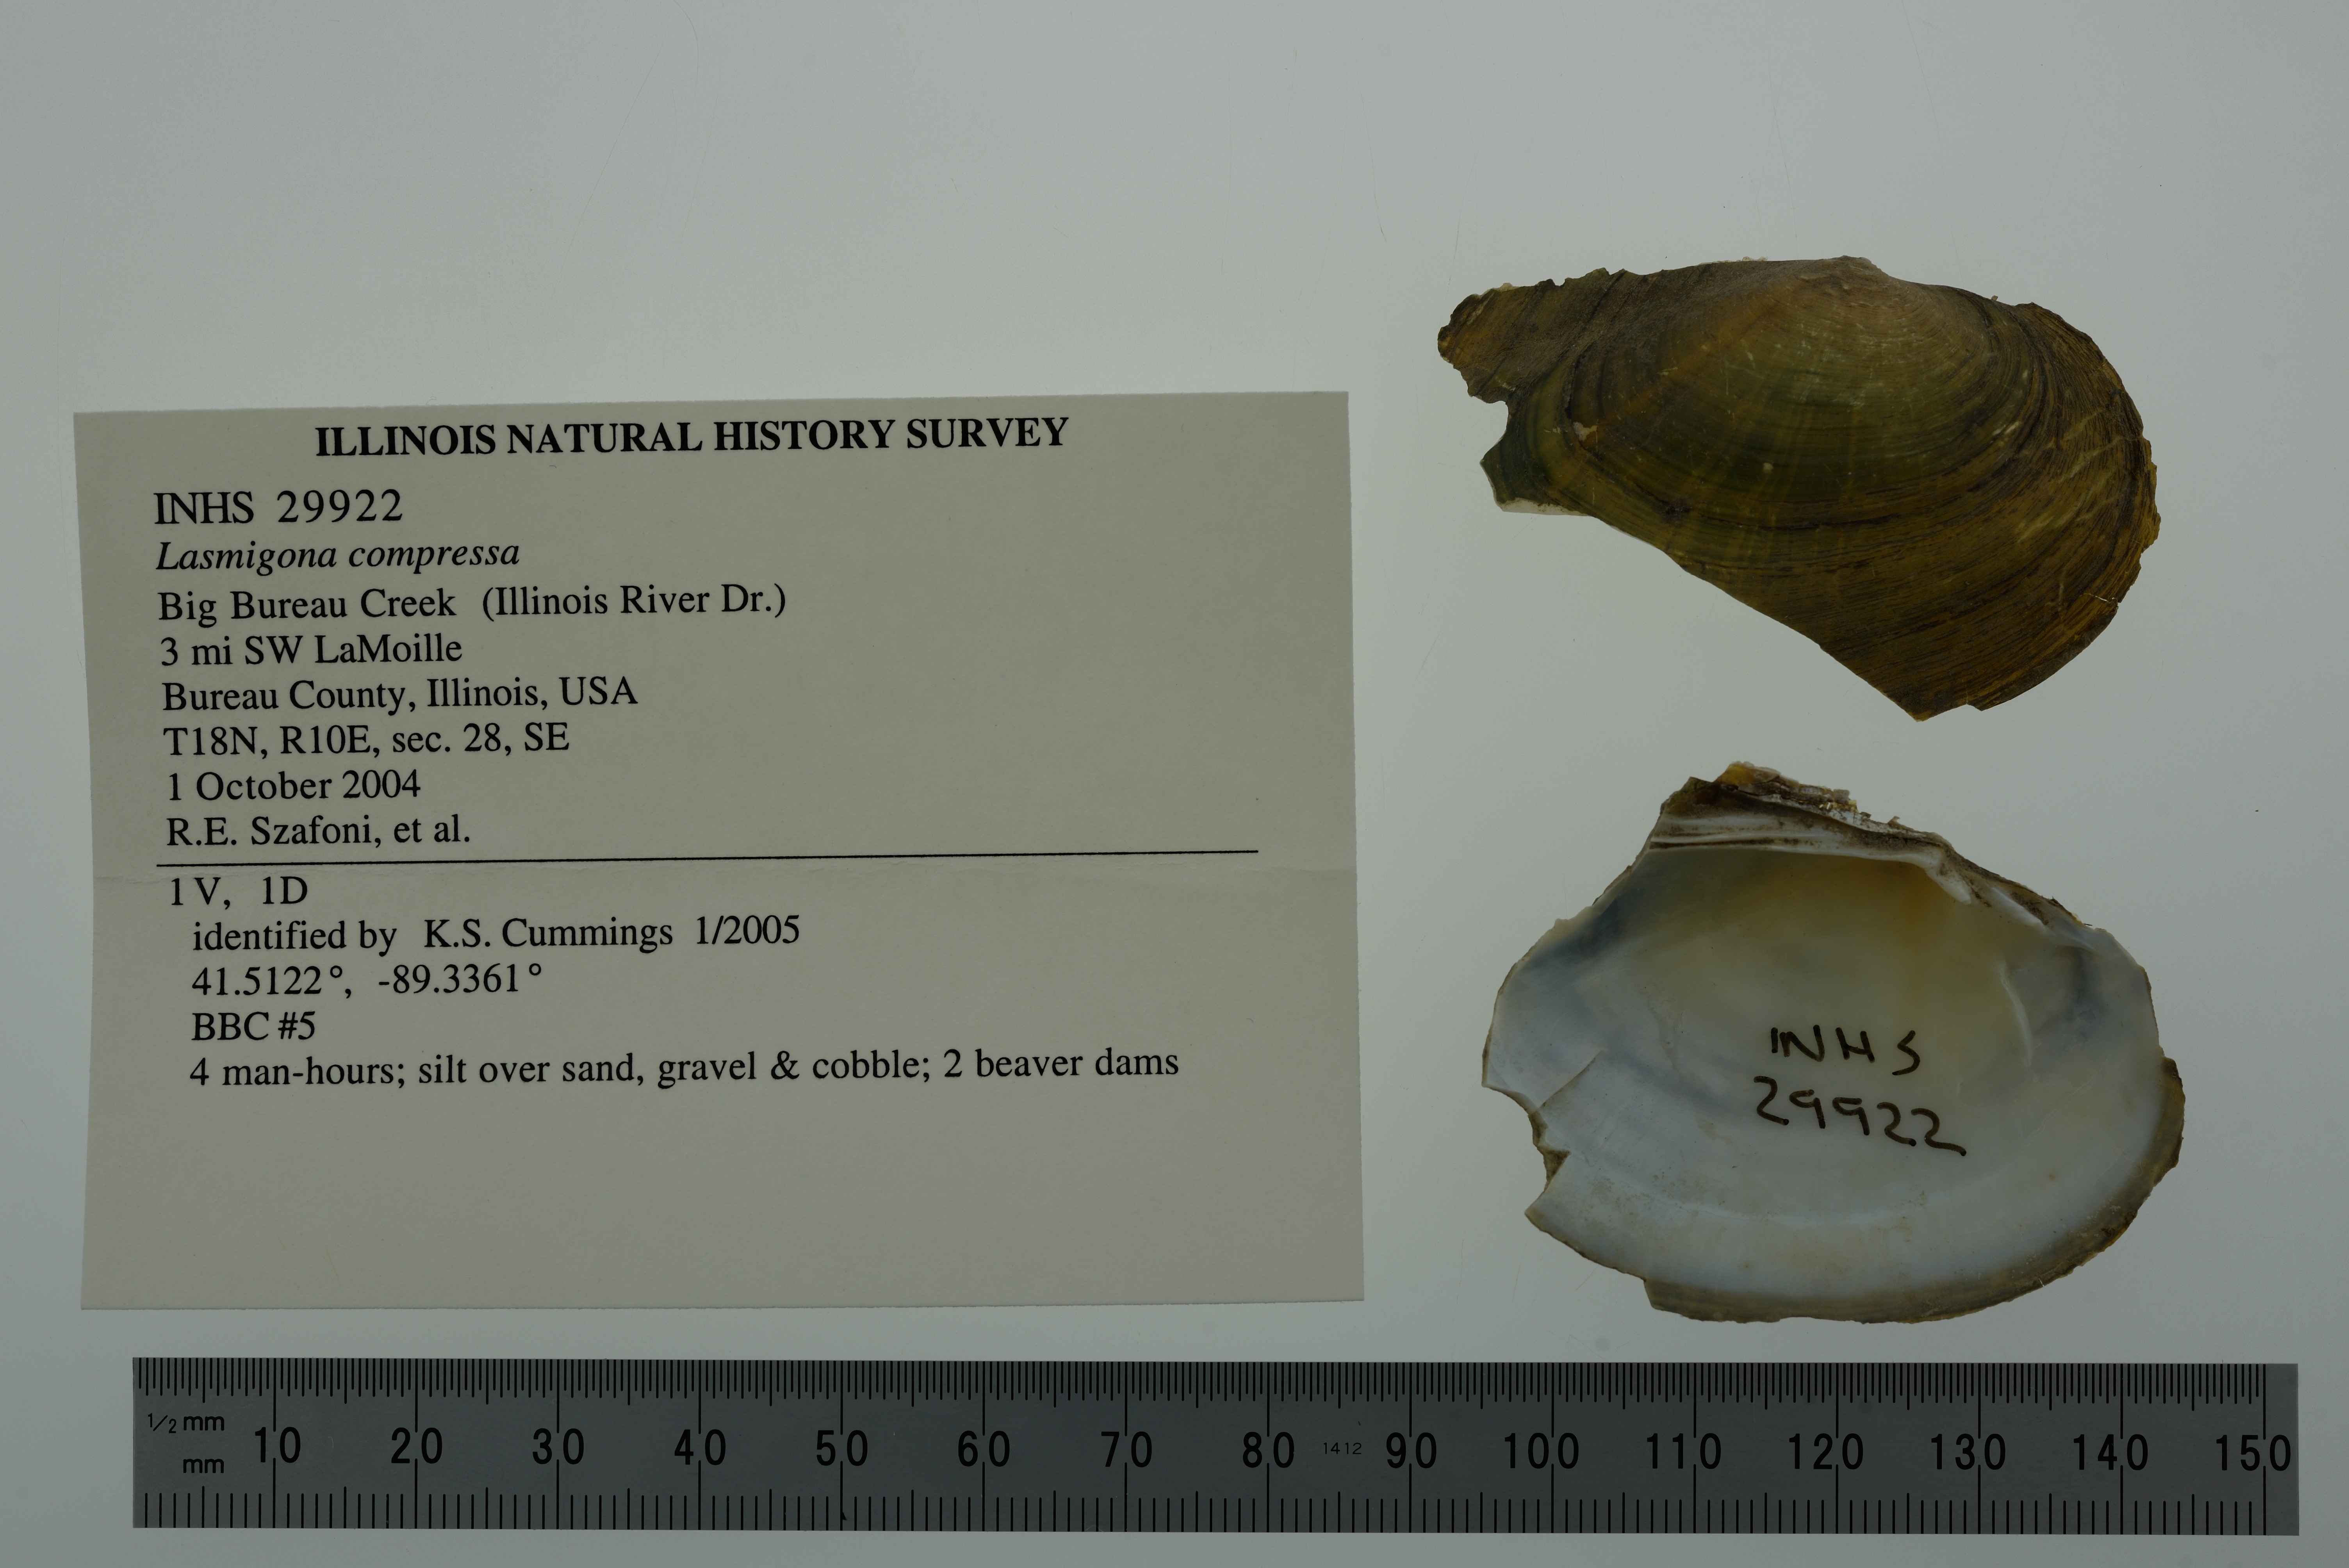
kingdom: Animalia
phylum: Mollusca
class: Bivalvia
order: Unionida
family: Unionidae
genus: Lasmigona
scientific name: Lasmigona compressa
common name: Creek heelsplitter
